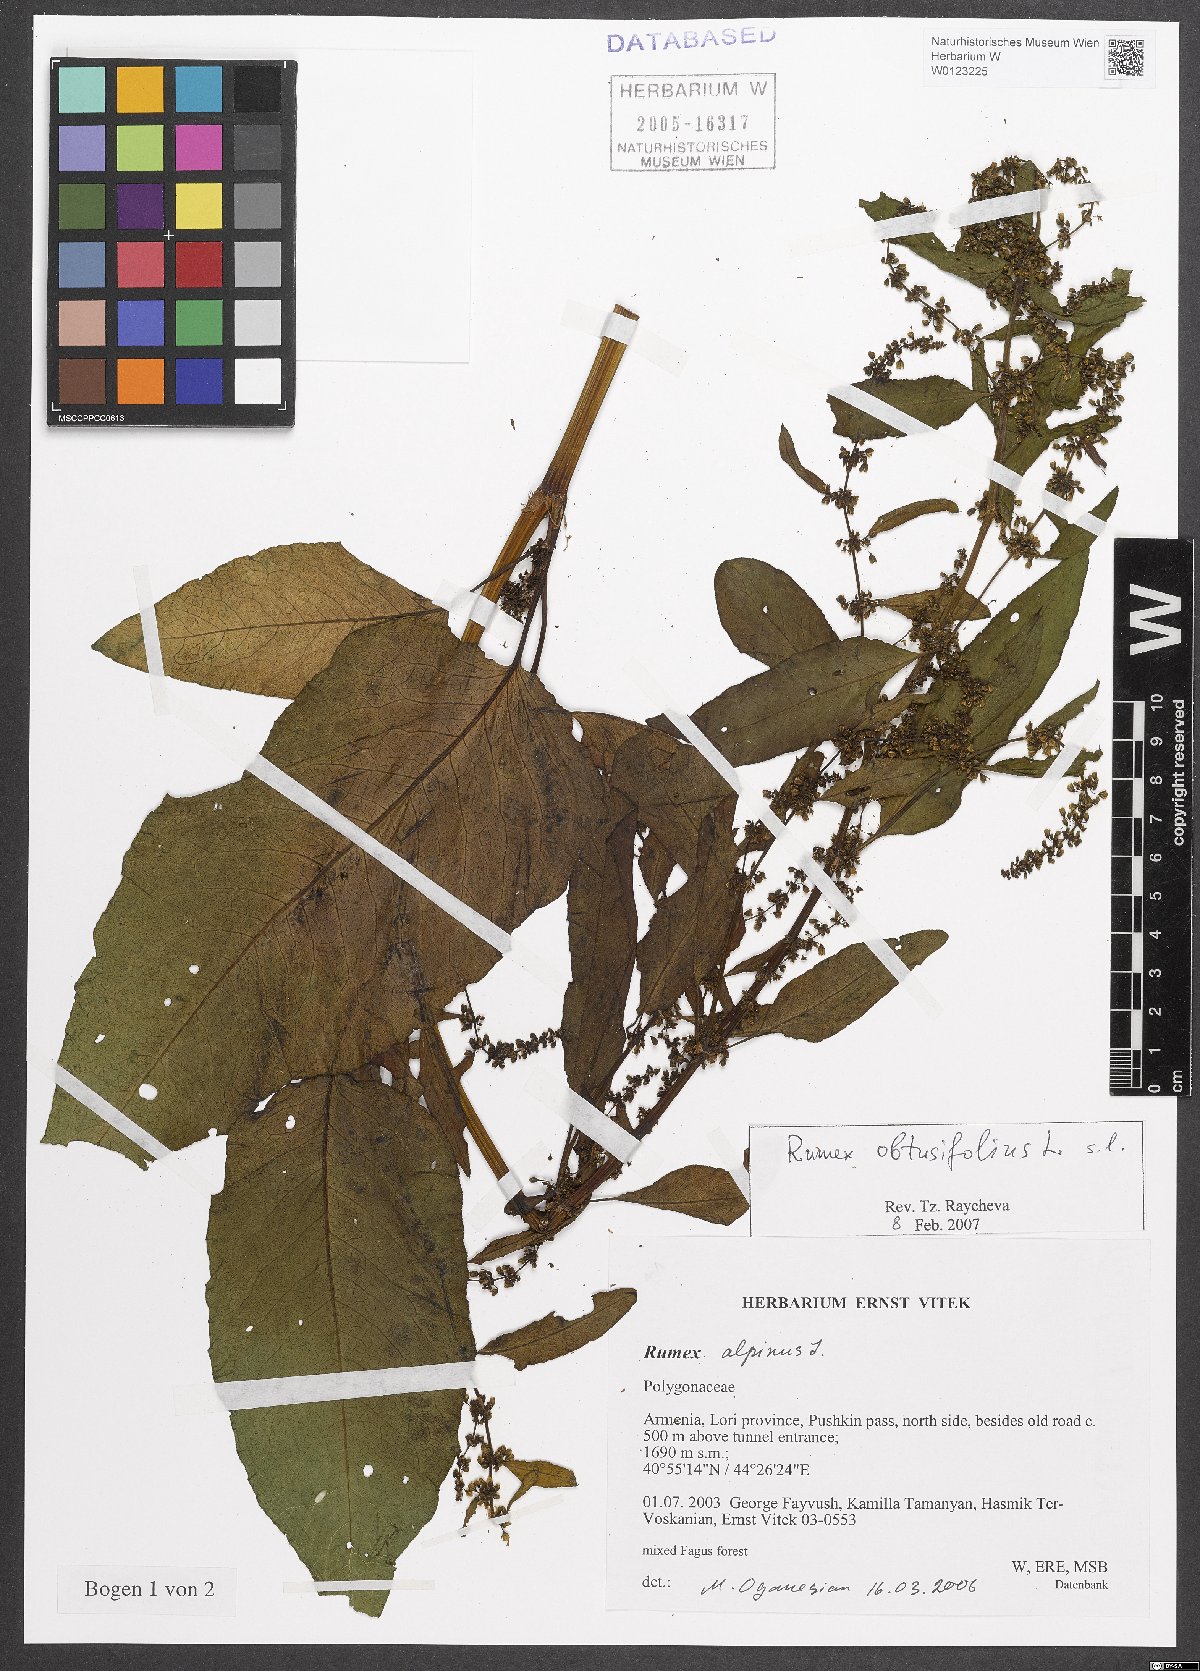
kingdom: Plantae
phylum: Tracheophyta
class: Magnoliopsida
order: Caryophyllales
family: Polygonaceae
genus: Rumex
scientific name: Rumex obtusifolius
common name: Bitter dock
